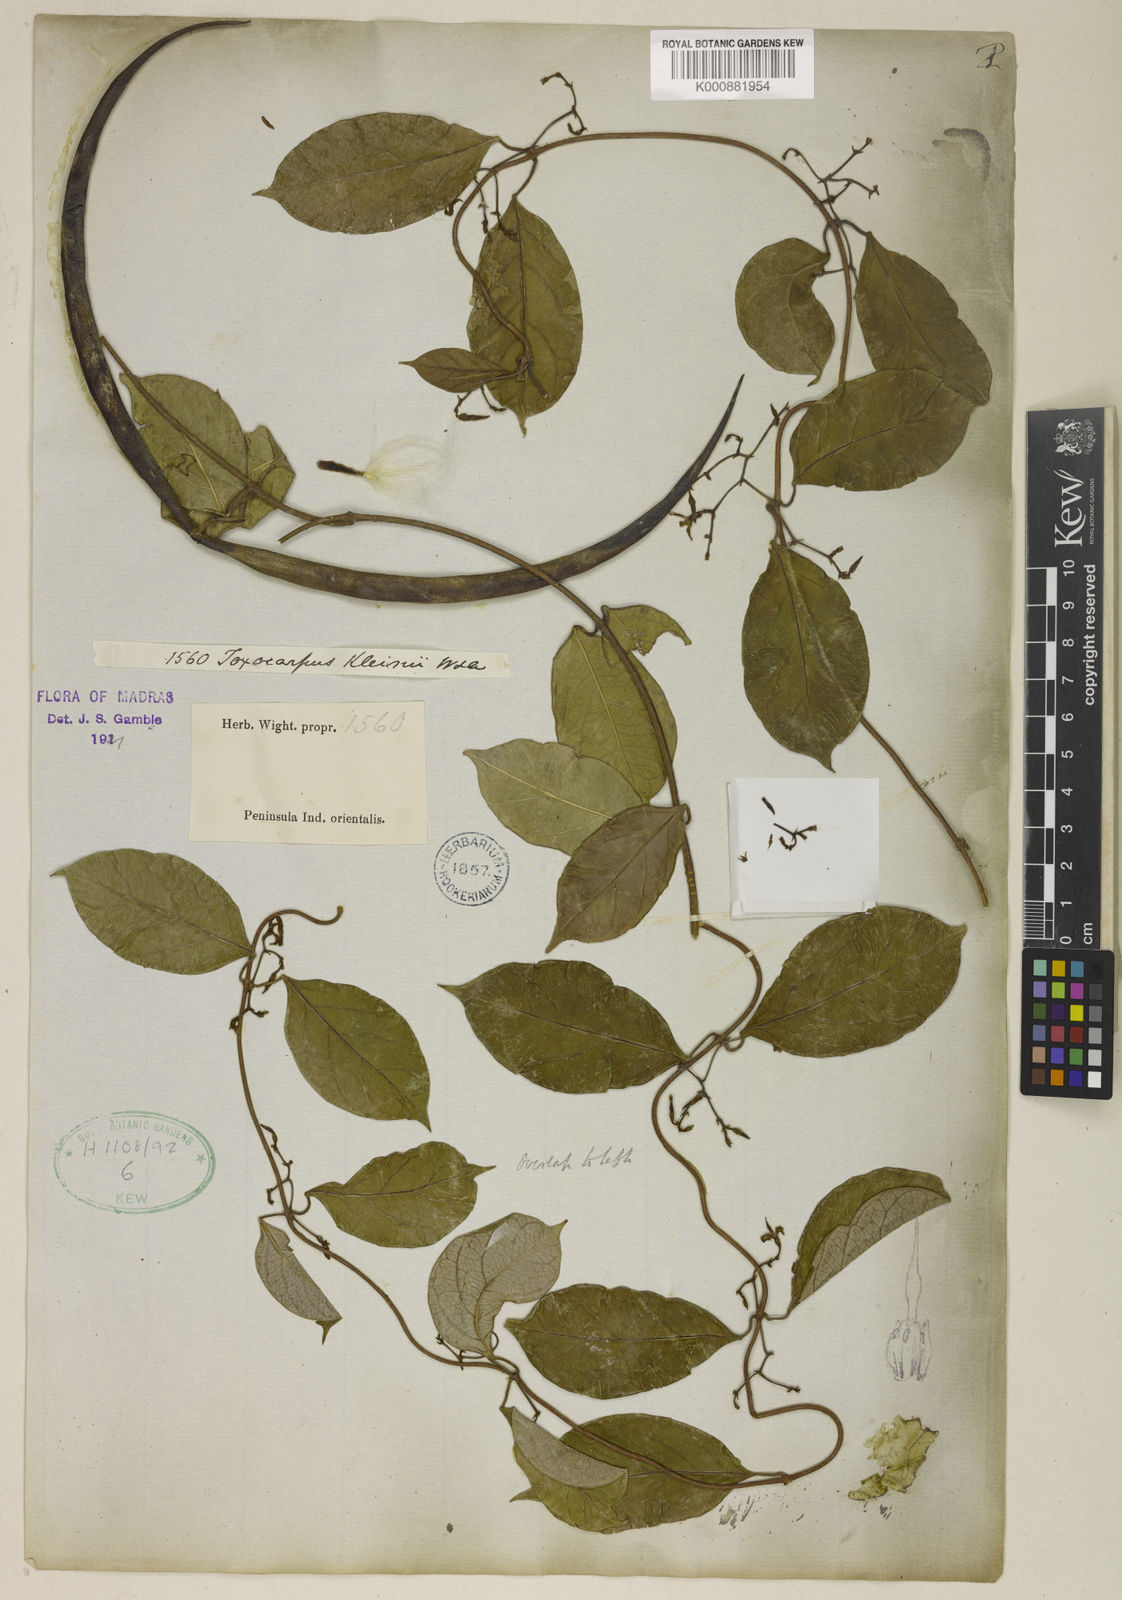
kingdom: Plantae
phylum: Tracheophyta
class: Magnoliopsida
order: Gentianales
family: Apocynaceae
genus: Toxocarpus
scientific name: Toxocarpus kleinii
